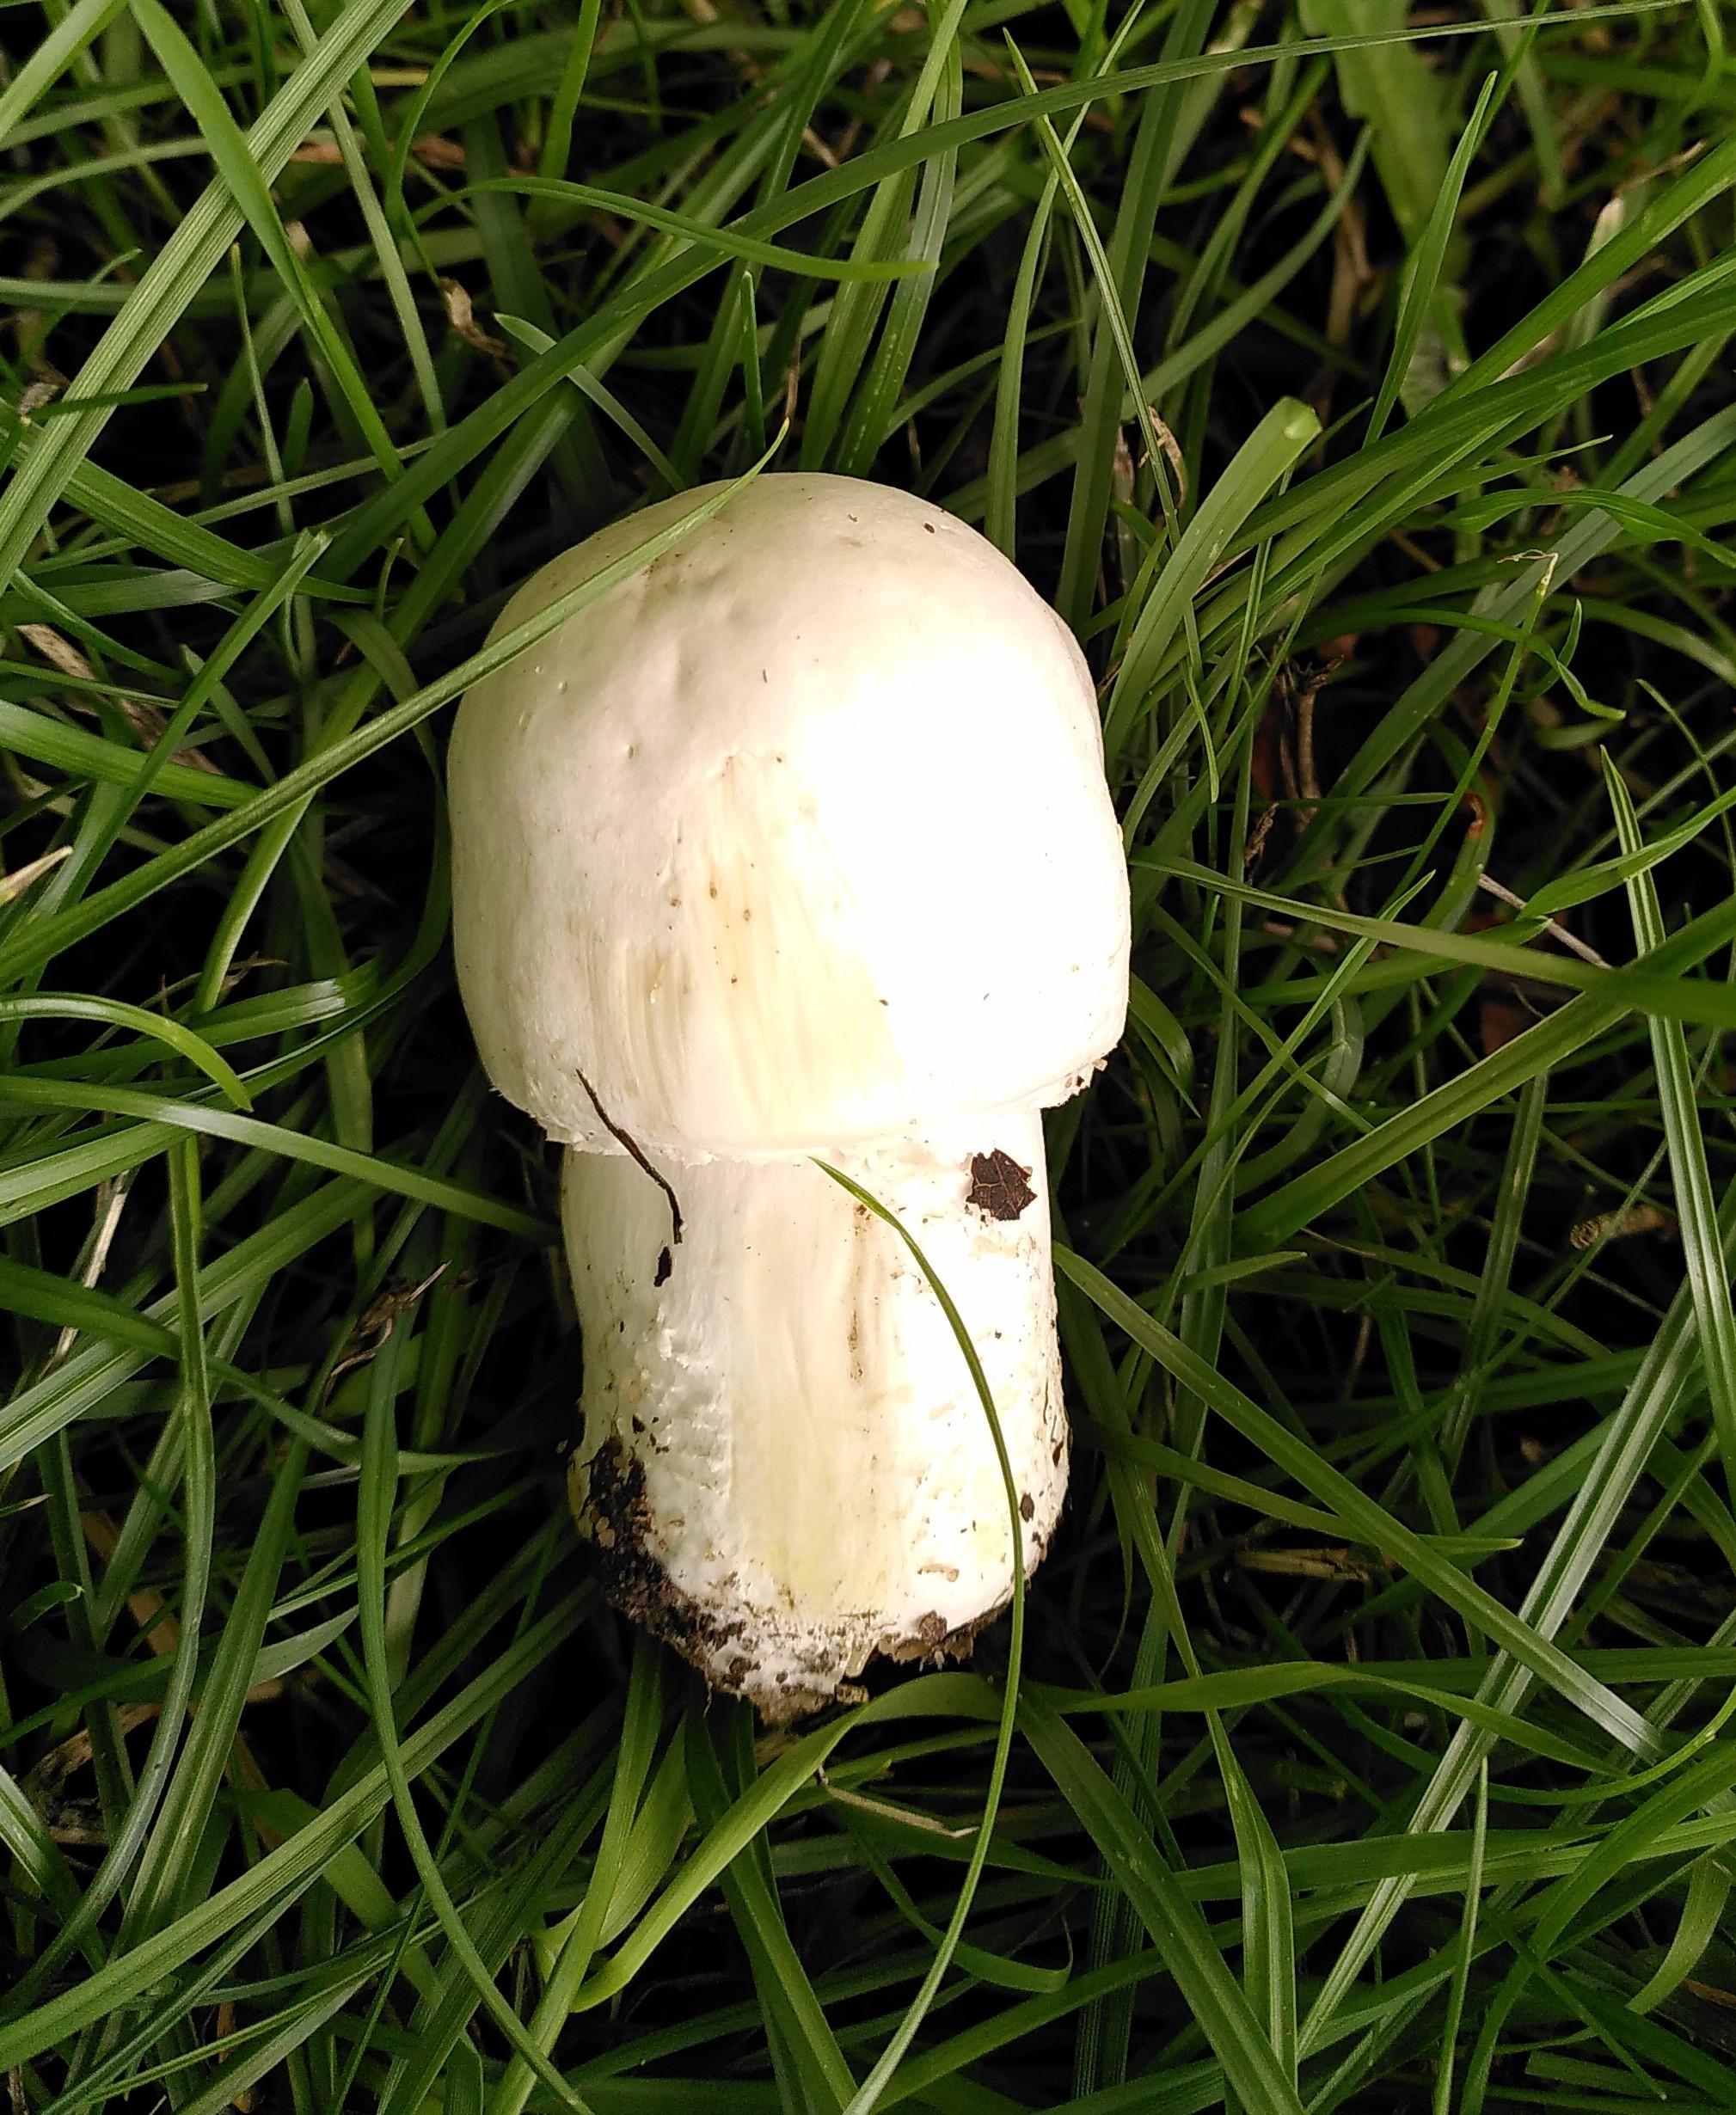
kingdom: Fungi
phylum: Basidiomycota
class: Agaricomycetes
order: Agaricales
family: Agaricaceae
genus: Agaricus
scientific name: Agaricus arvensis
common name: ager-champignon
